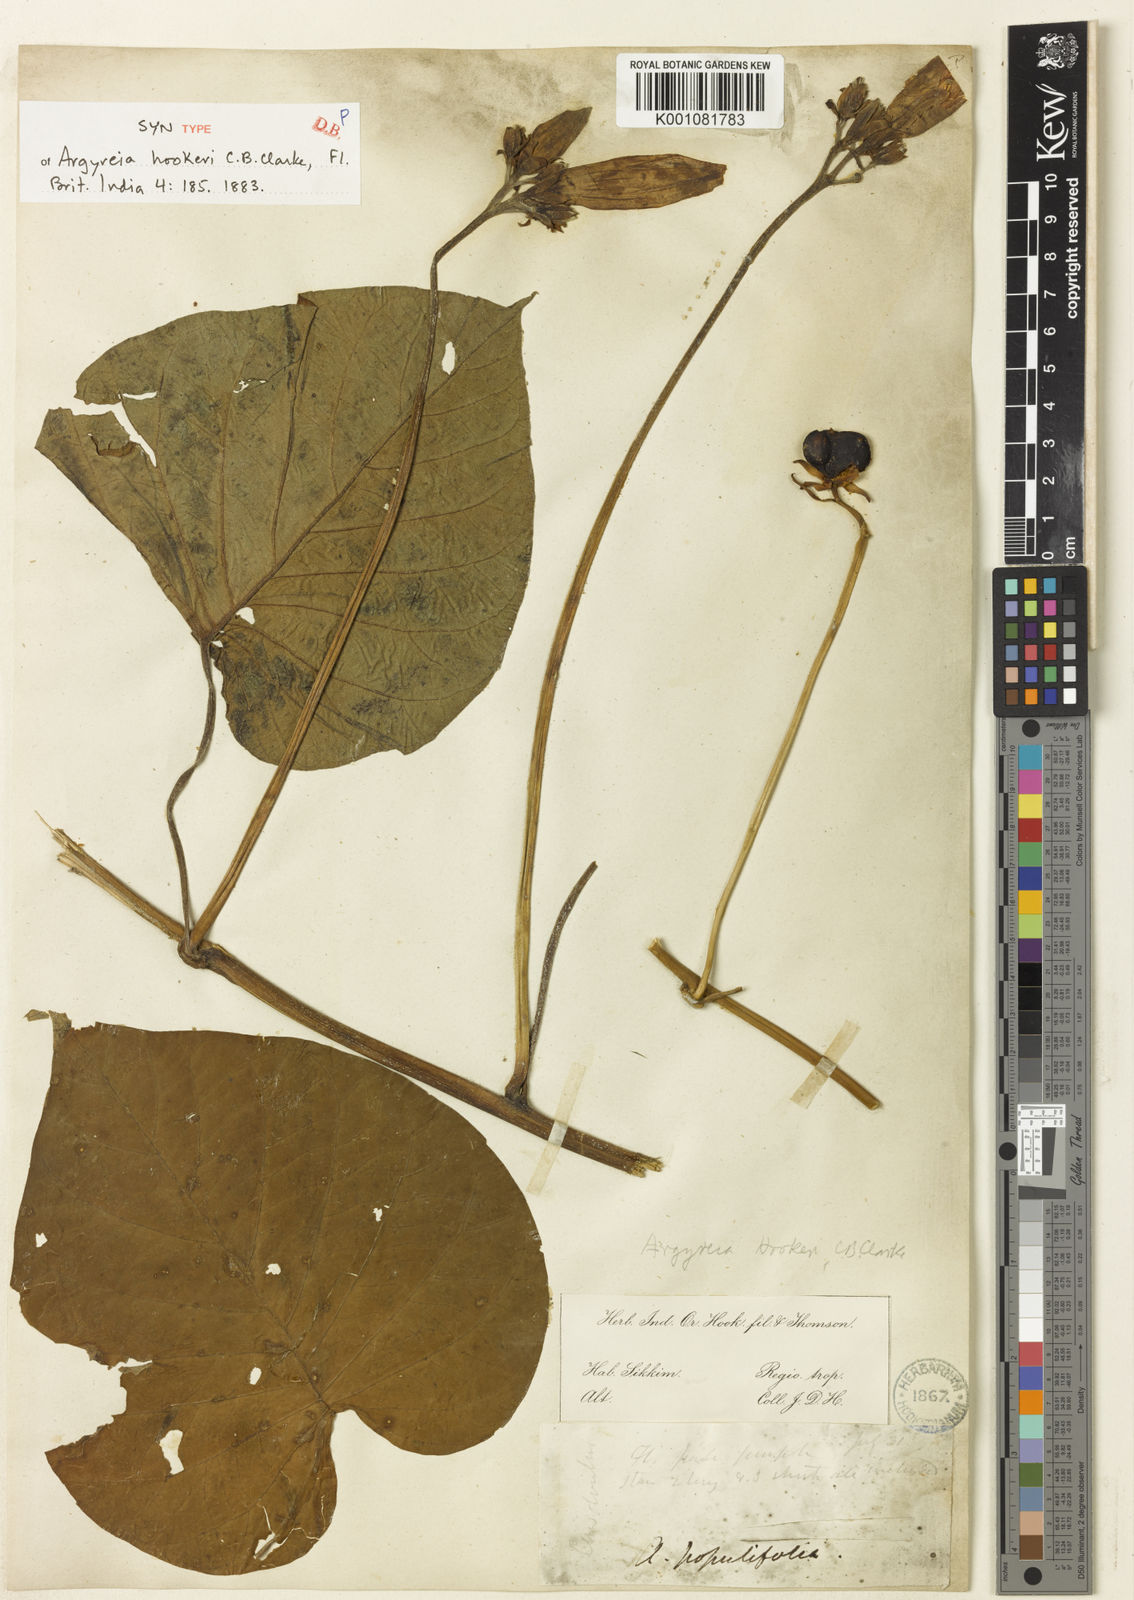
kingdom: Plantae
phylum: Tracheophyta
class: Magnoliopsida
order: Solanales
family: Convolvulaceae
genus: Argyreia
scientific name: Argyreia hookeri
